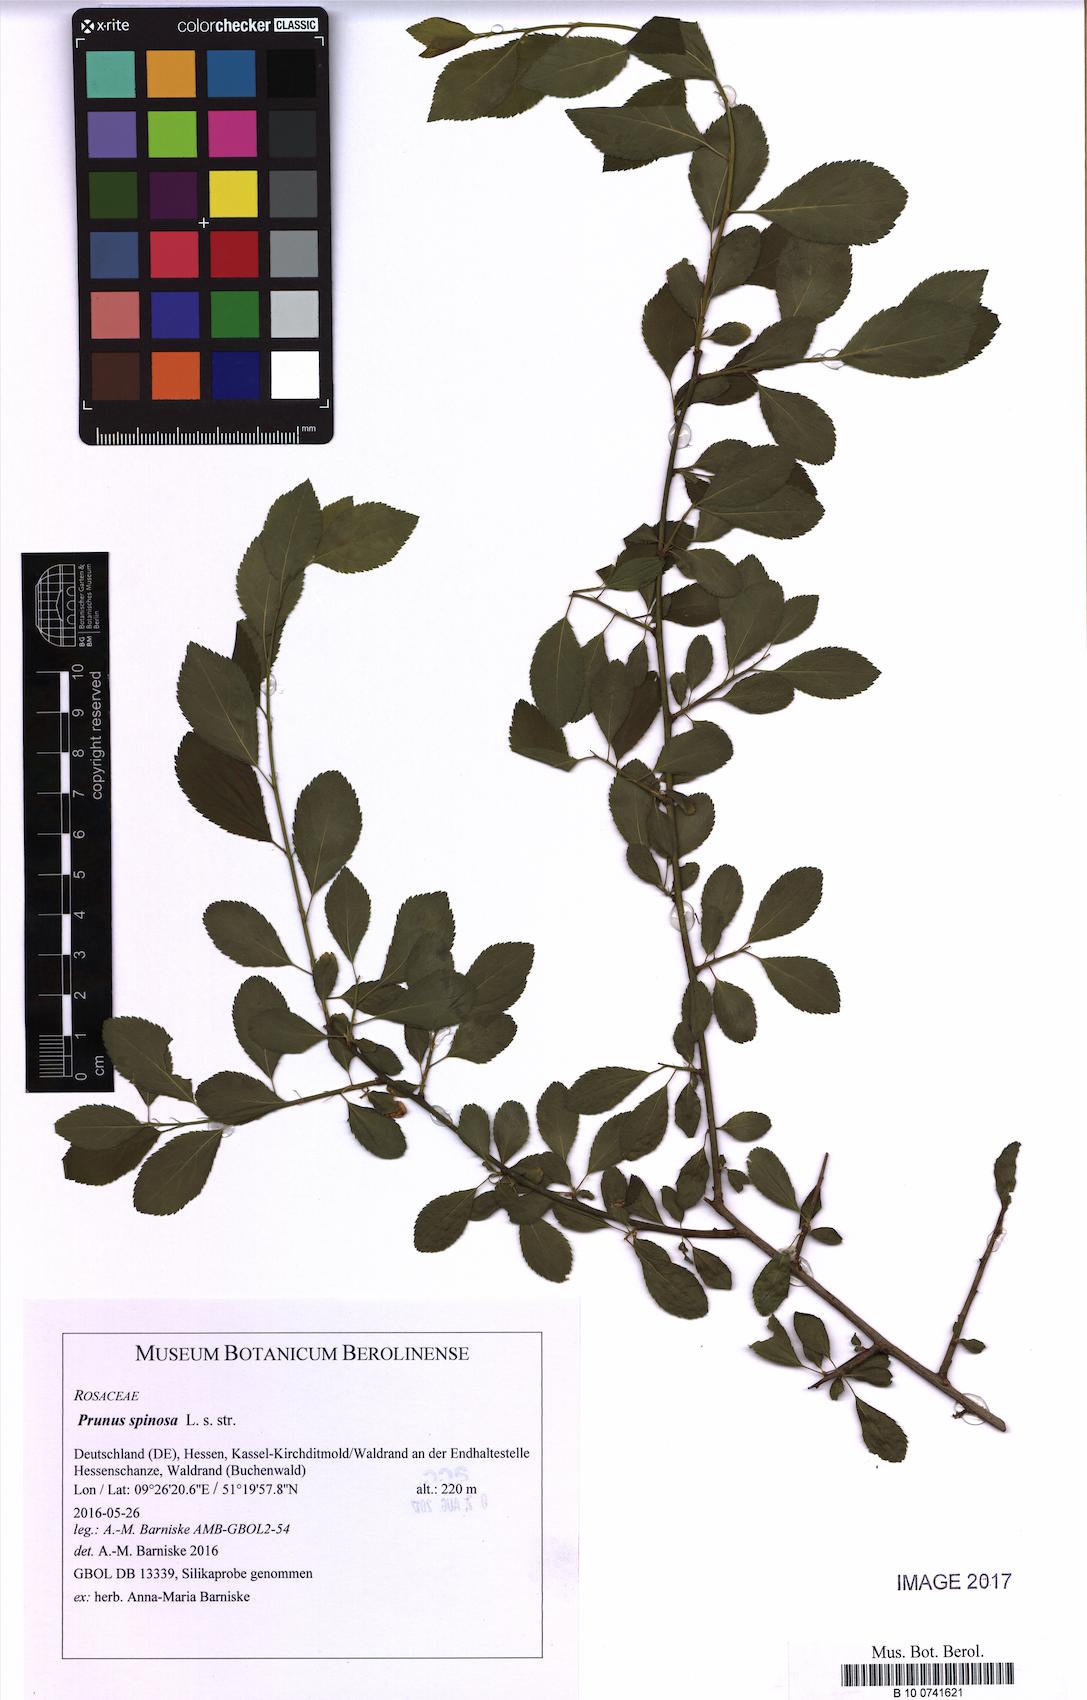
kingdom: Plantae
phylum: Tracheophyta
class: Magnoliopsida
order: Rosales
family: Rosaceae
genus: Prunus
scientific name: Prunus spinosa
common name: Blackthorn
